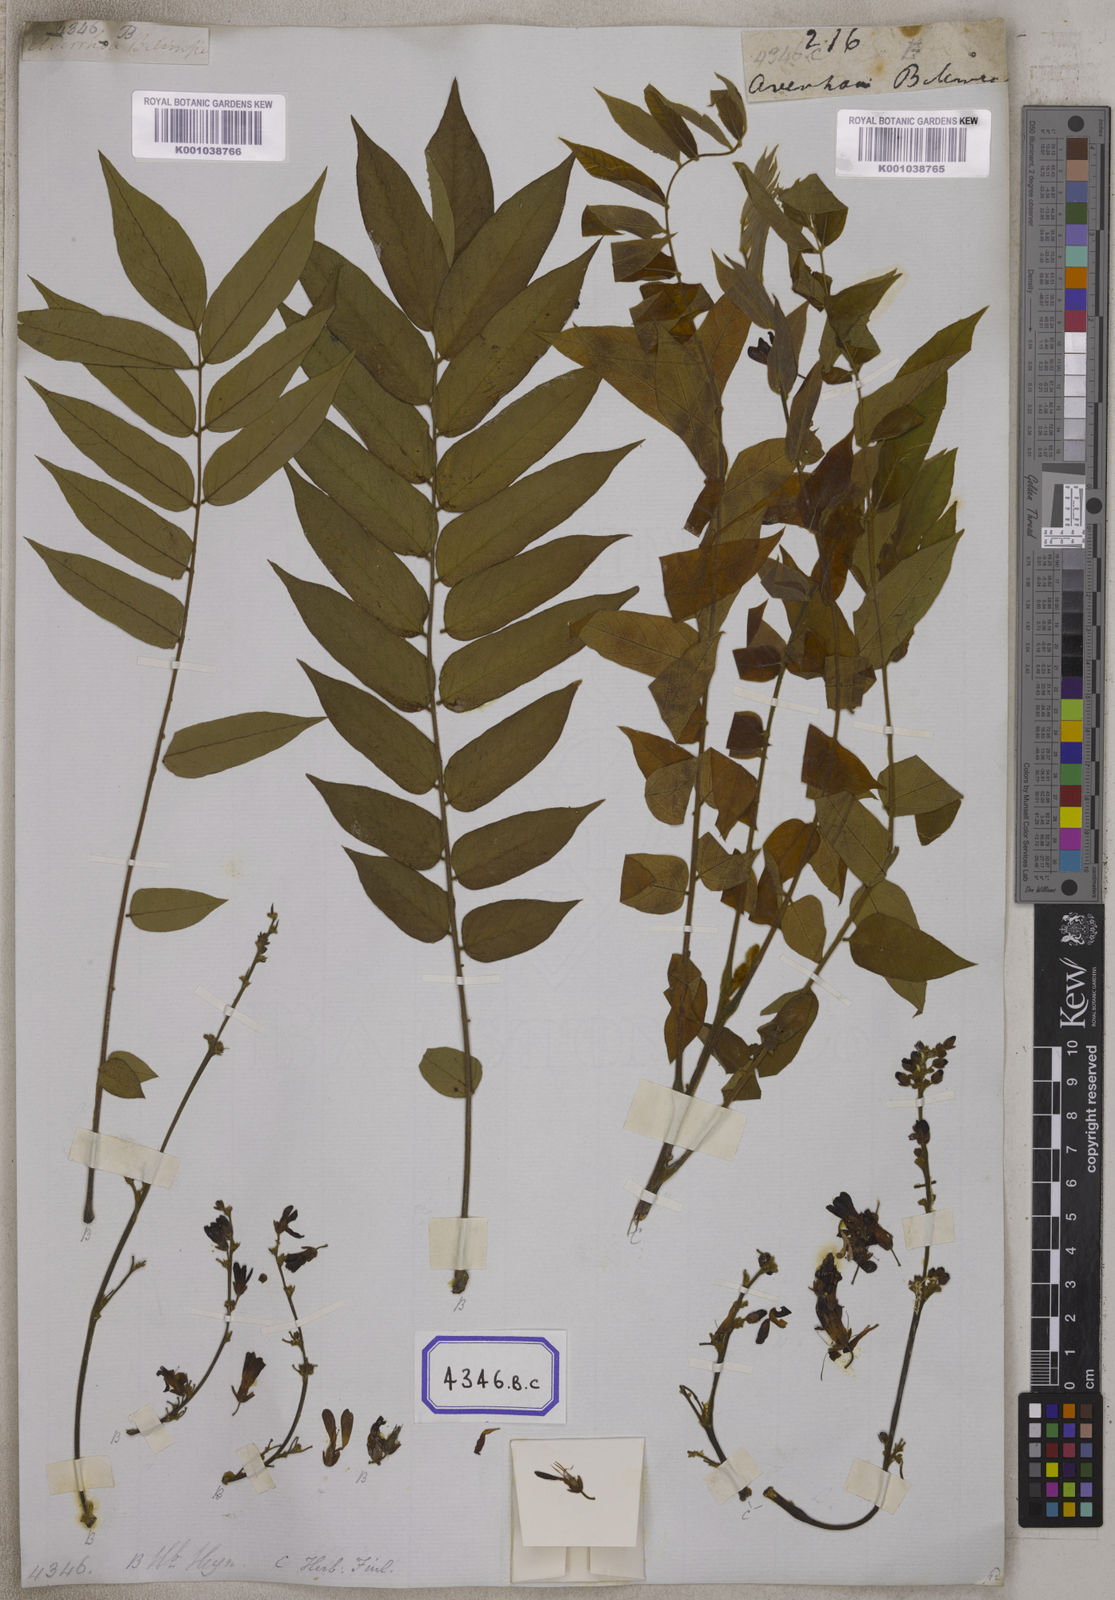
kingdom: Plantae
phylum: Tracheophyta
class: Magnoliopsida
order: Oxalidales
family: Oxalidaceae
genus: Averrhoa
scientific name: Averrhoa bilimbi
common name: Bilimbi
